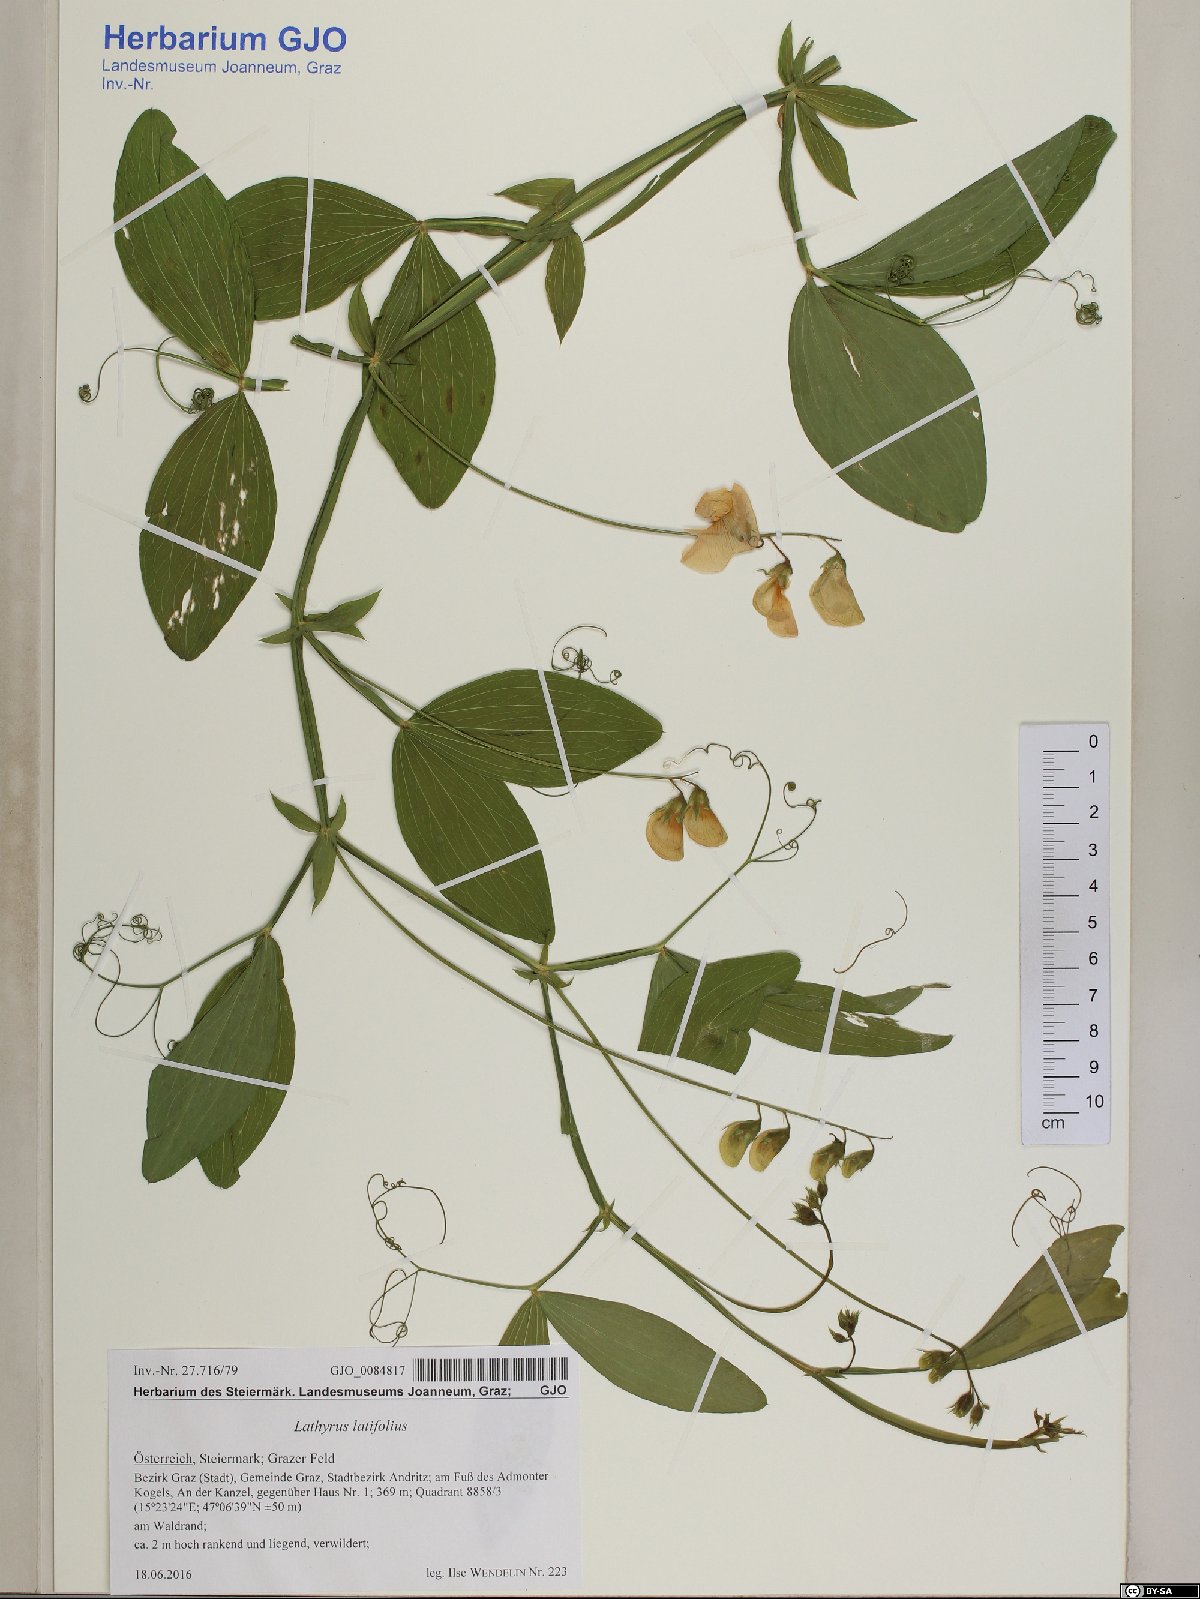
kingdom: Plantae
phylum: Tracheophyta
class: Magnoliopsida
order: Fabales
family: Fabaceae
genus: Lathyrus
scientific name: Lathyrus latifolius
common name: Perennial pea
